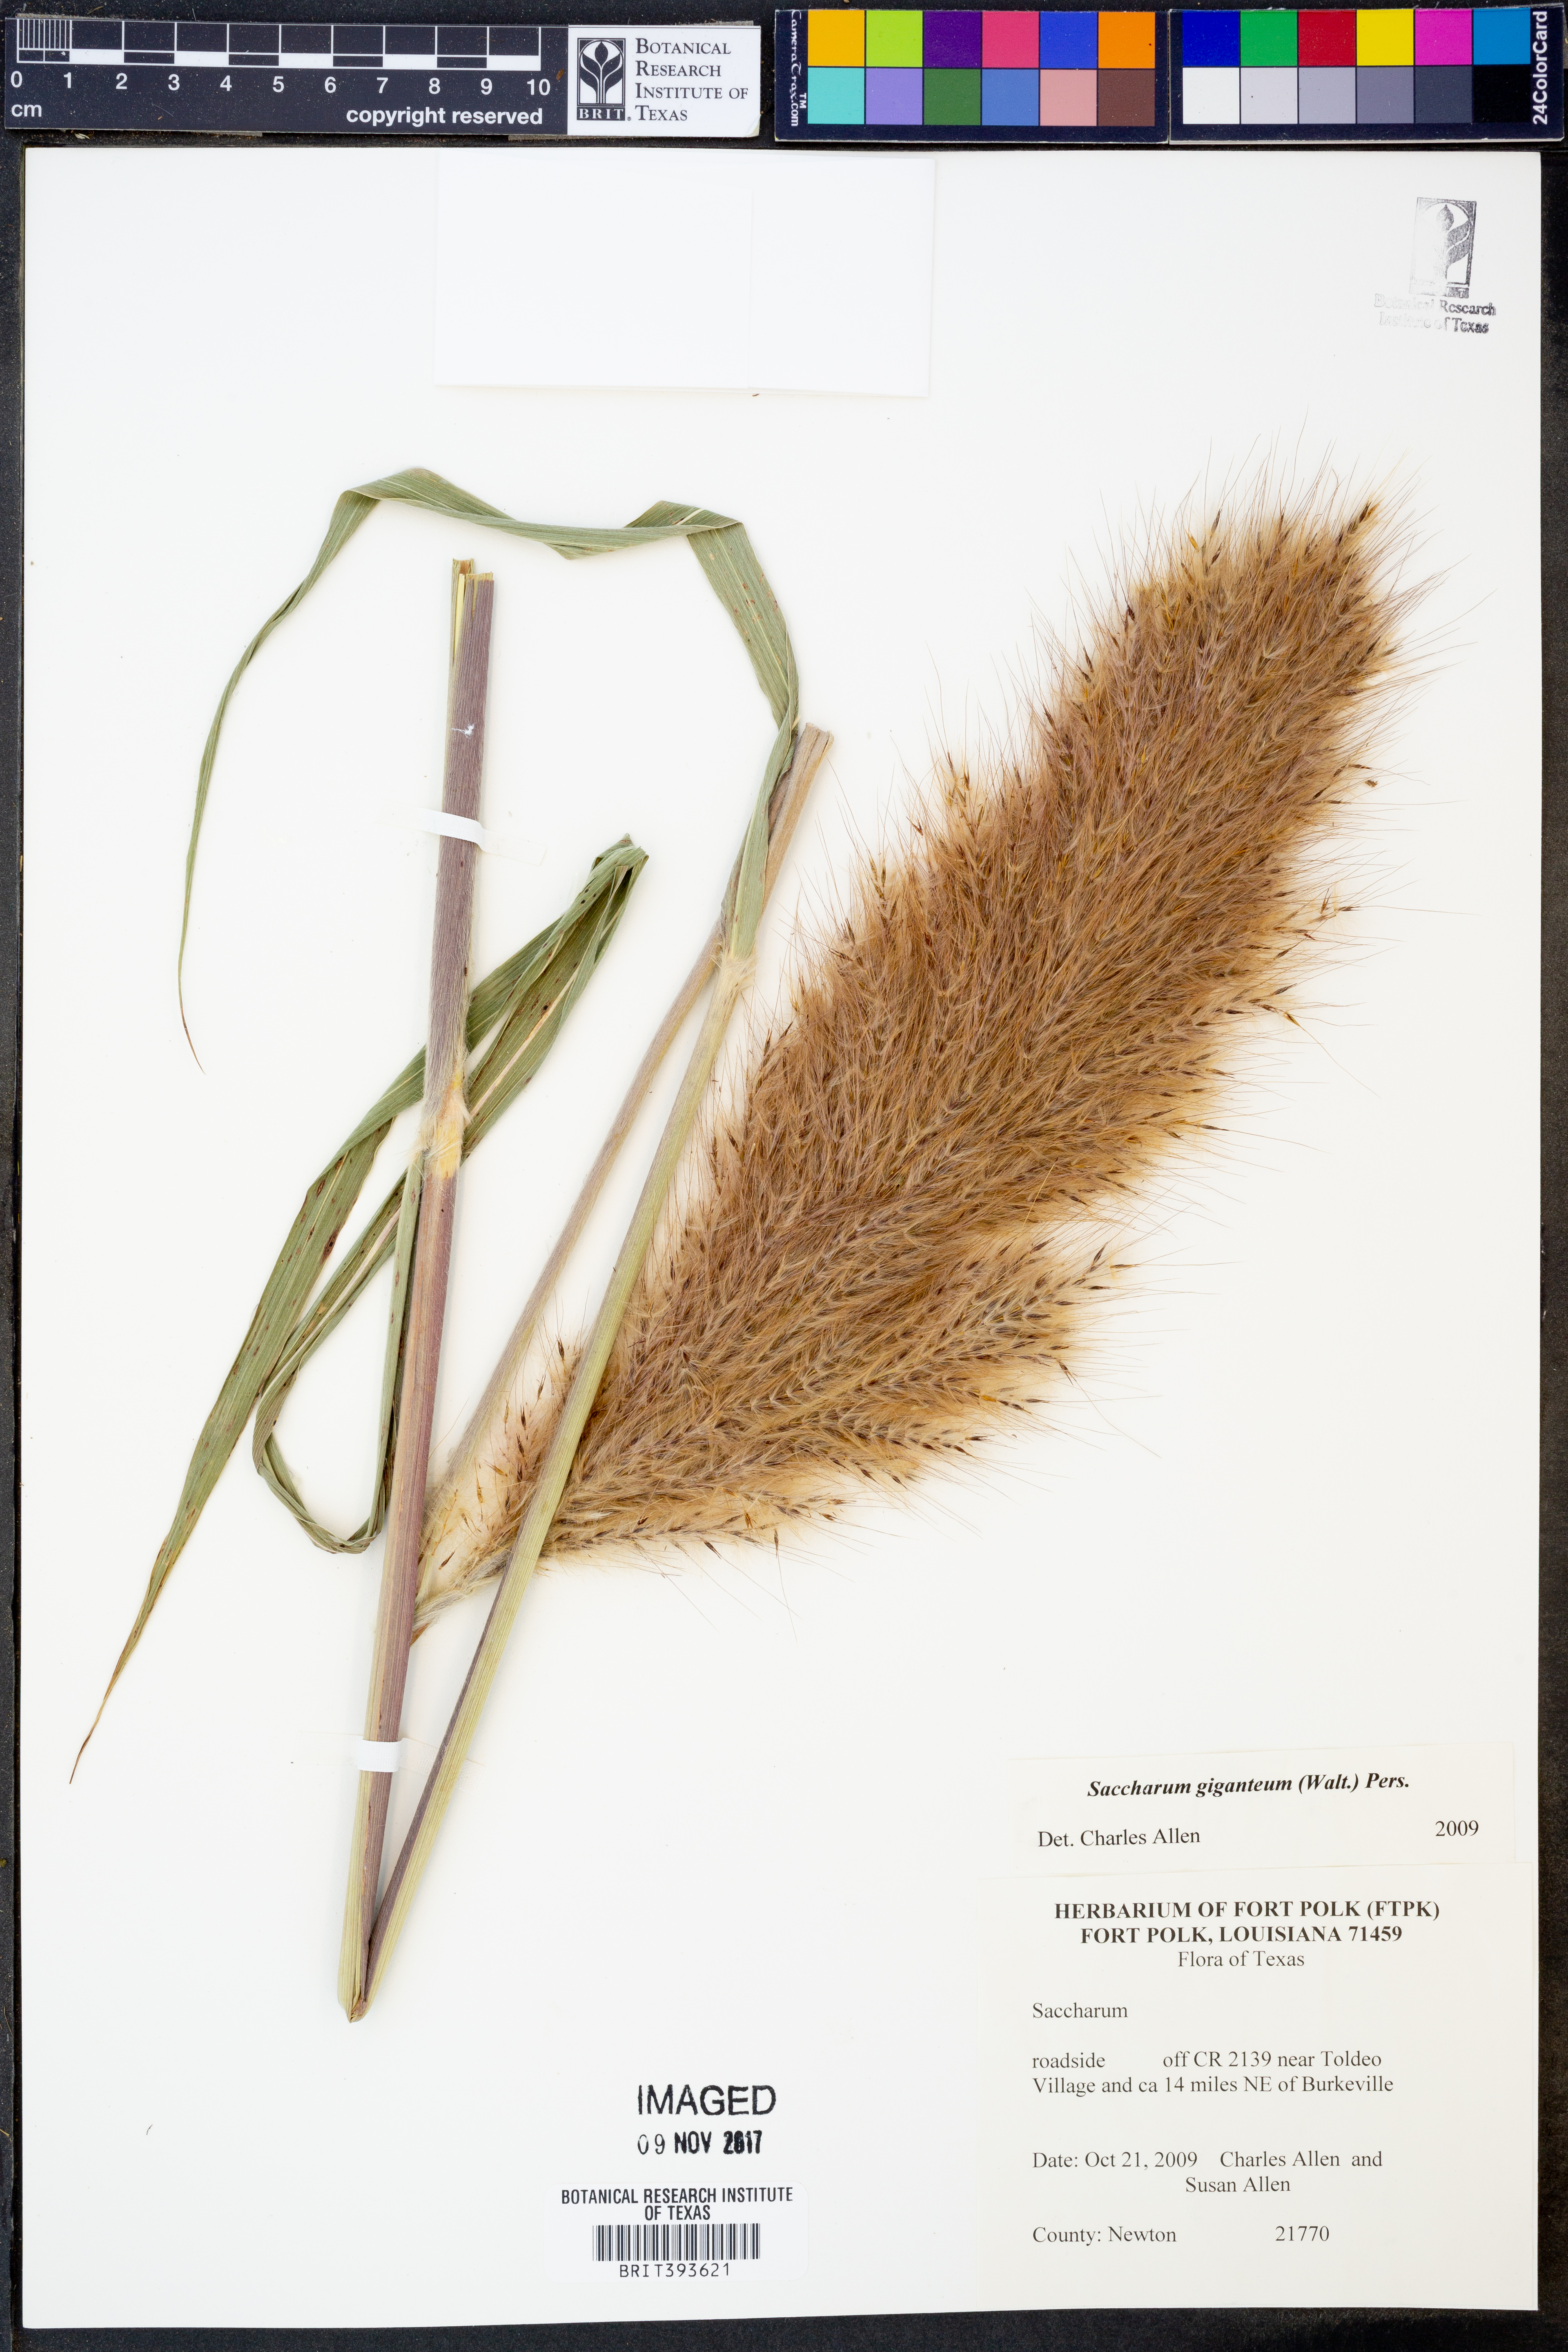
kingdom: Plantae
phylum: Tracheophyta
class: Liliopsida
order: Poales
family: Poaceae
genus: Erianthus
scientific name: Erianthus giganteus
